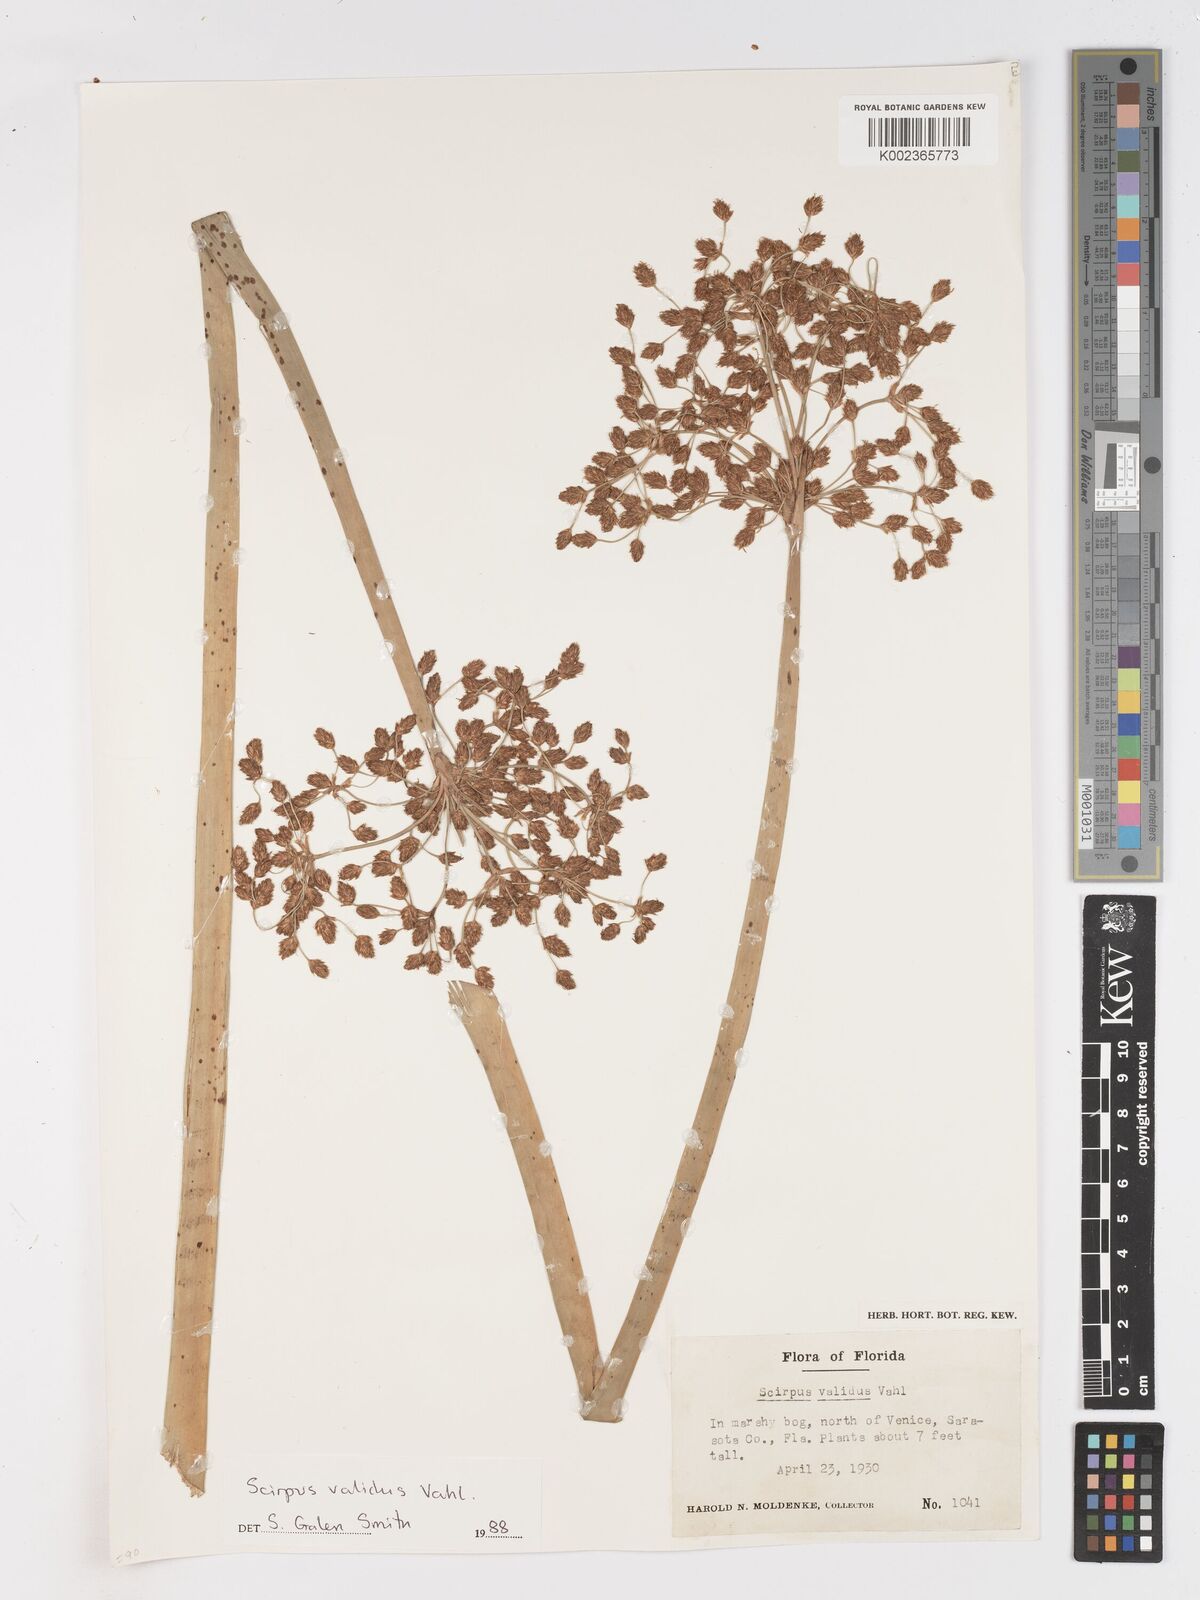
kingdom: Plantae
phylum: Tracheophyta
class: Liliopsida
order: Poales
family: Cyperaceae
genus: Schoenoplectus
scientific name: Schoenoplectus tabernaemontani
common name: Grey club-rush
